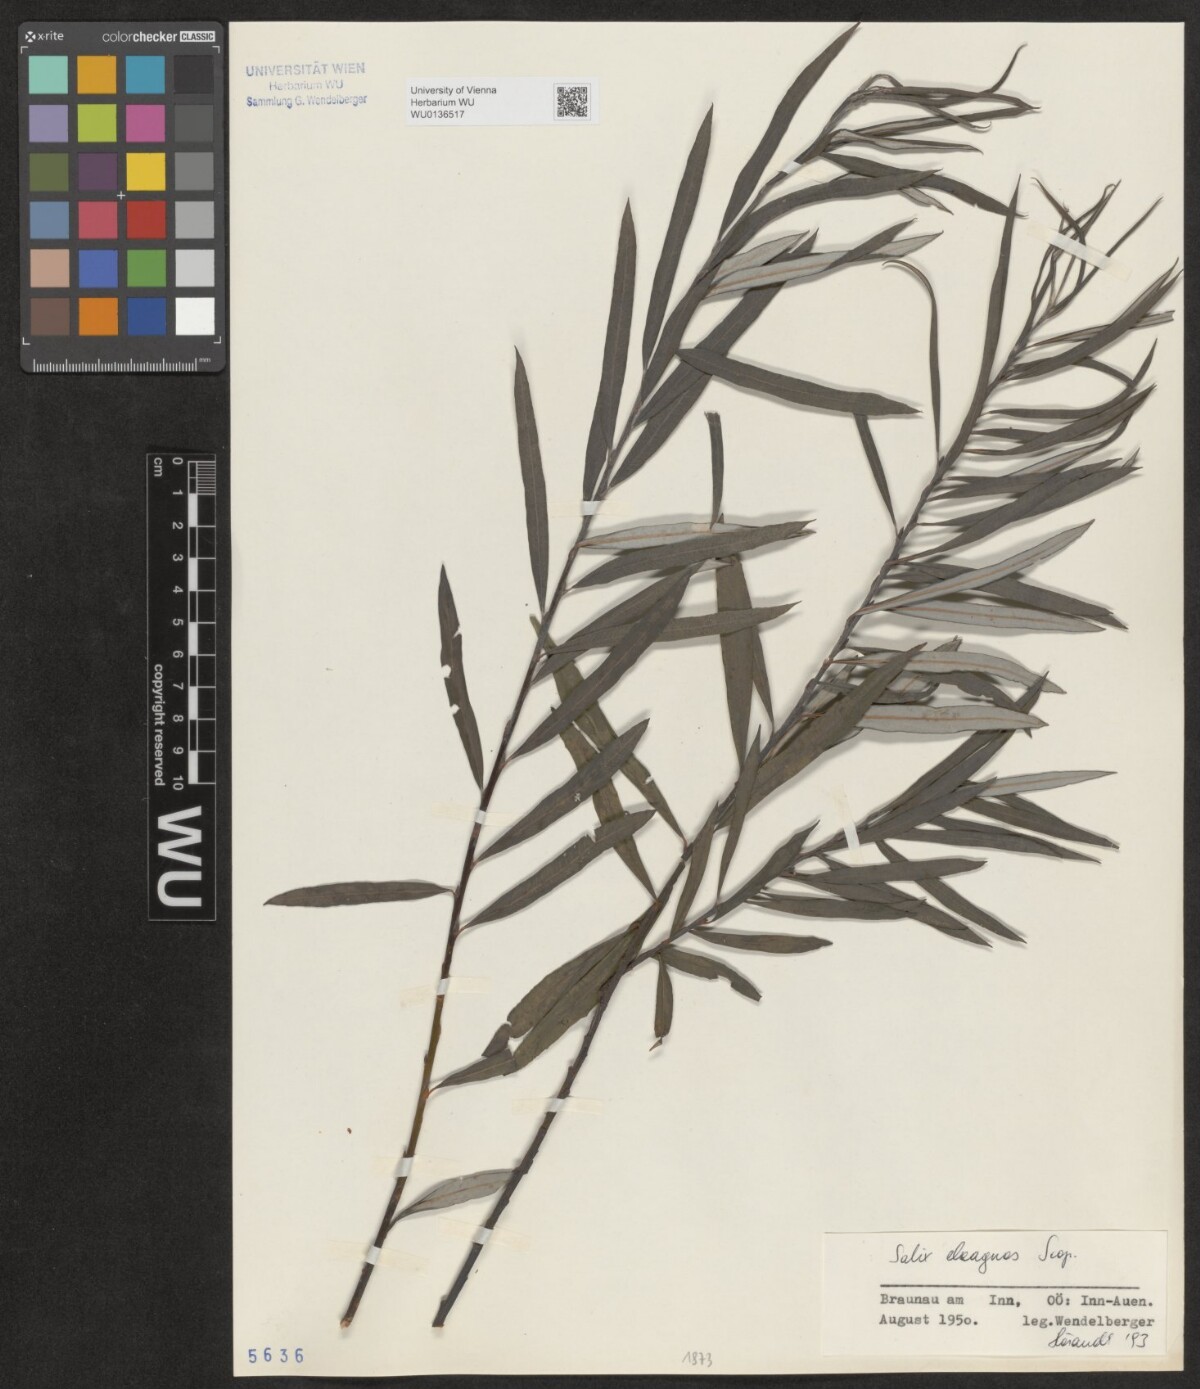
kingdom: Plantae
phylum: Tracheophyta
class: Magnoliopsida
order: Malpighiales
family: Salicaceae
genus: Salix
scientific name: Salix eleagnos
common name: Elaeagnus willow
